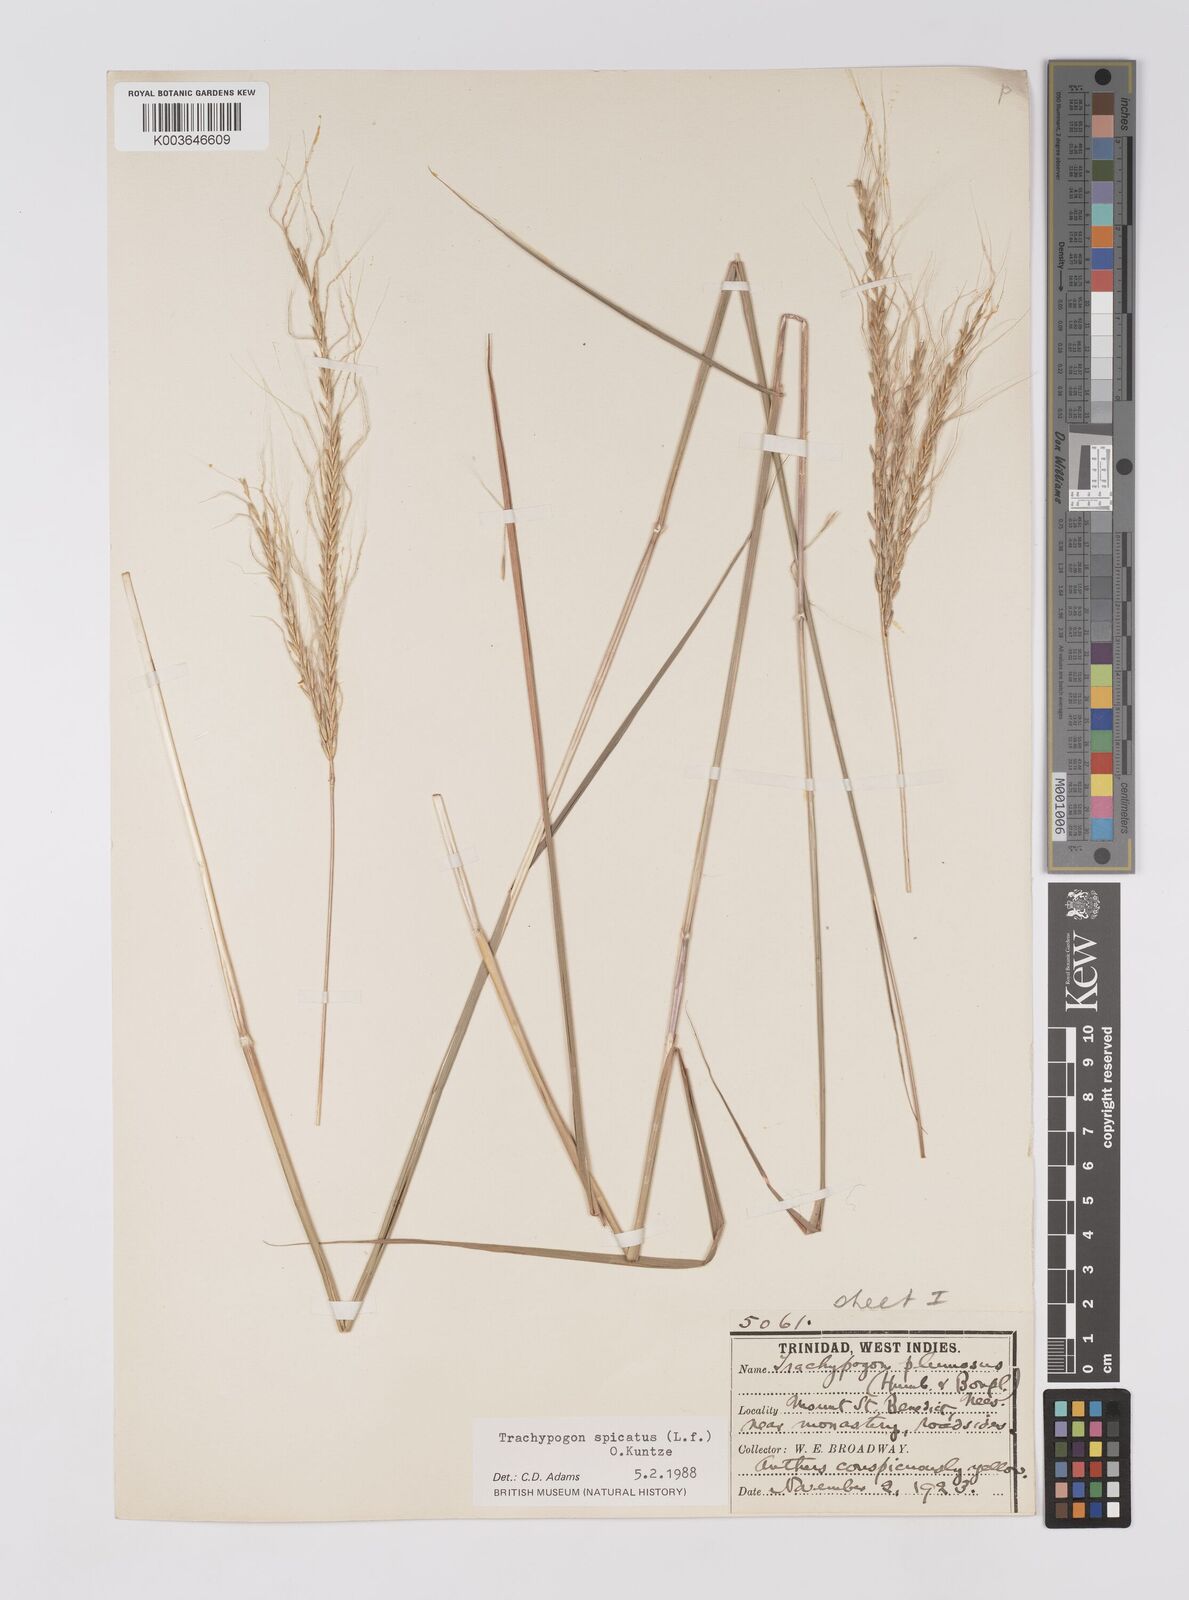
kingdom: Plantae
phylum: Tracheophyta
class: Liliopsida
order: Poales
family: Poaceae
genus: Trachypogon
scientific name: Trachypogon spicatus
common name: Crinkle-awn
